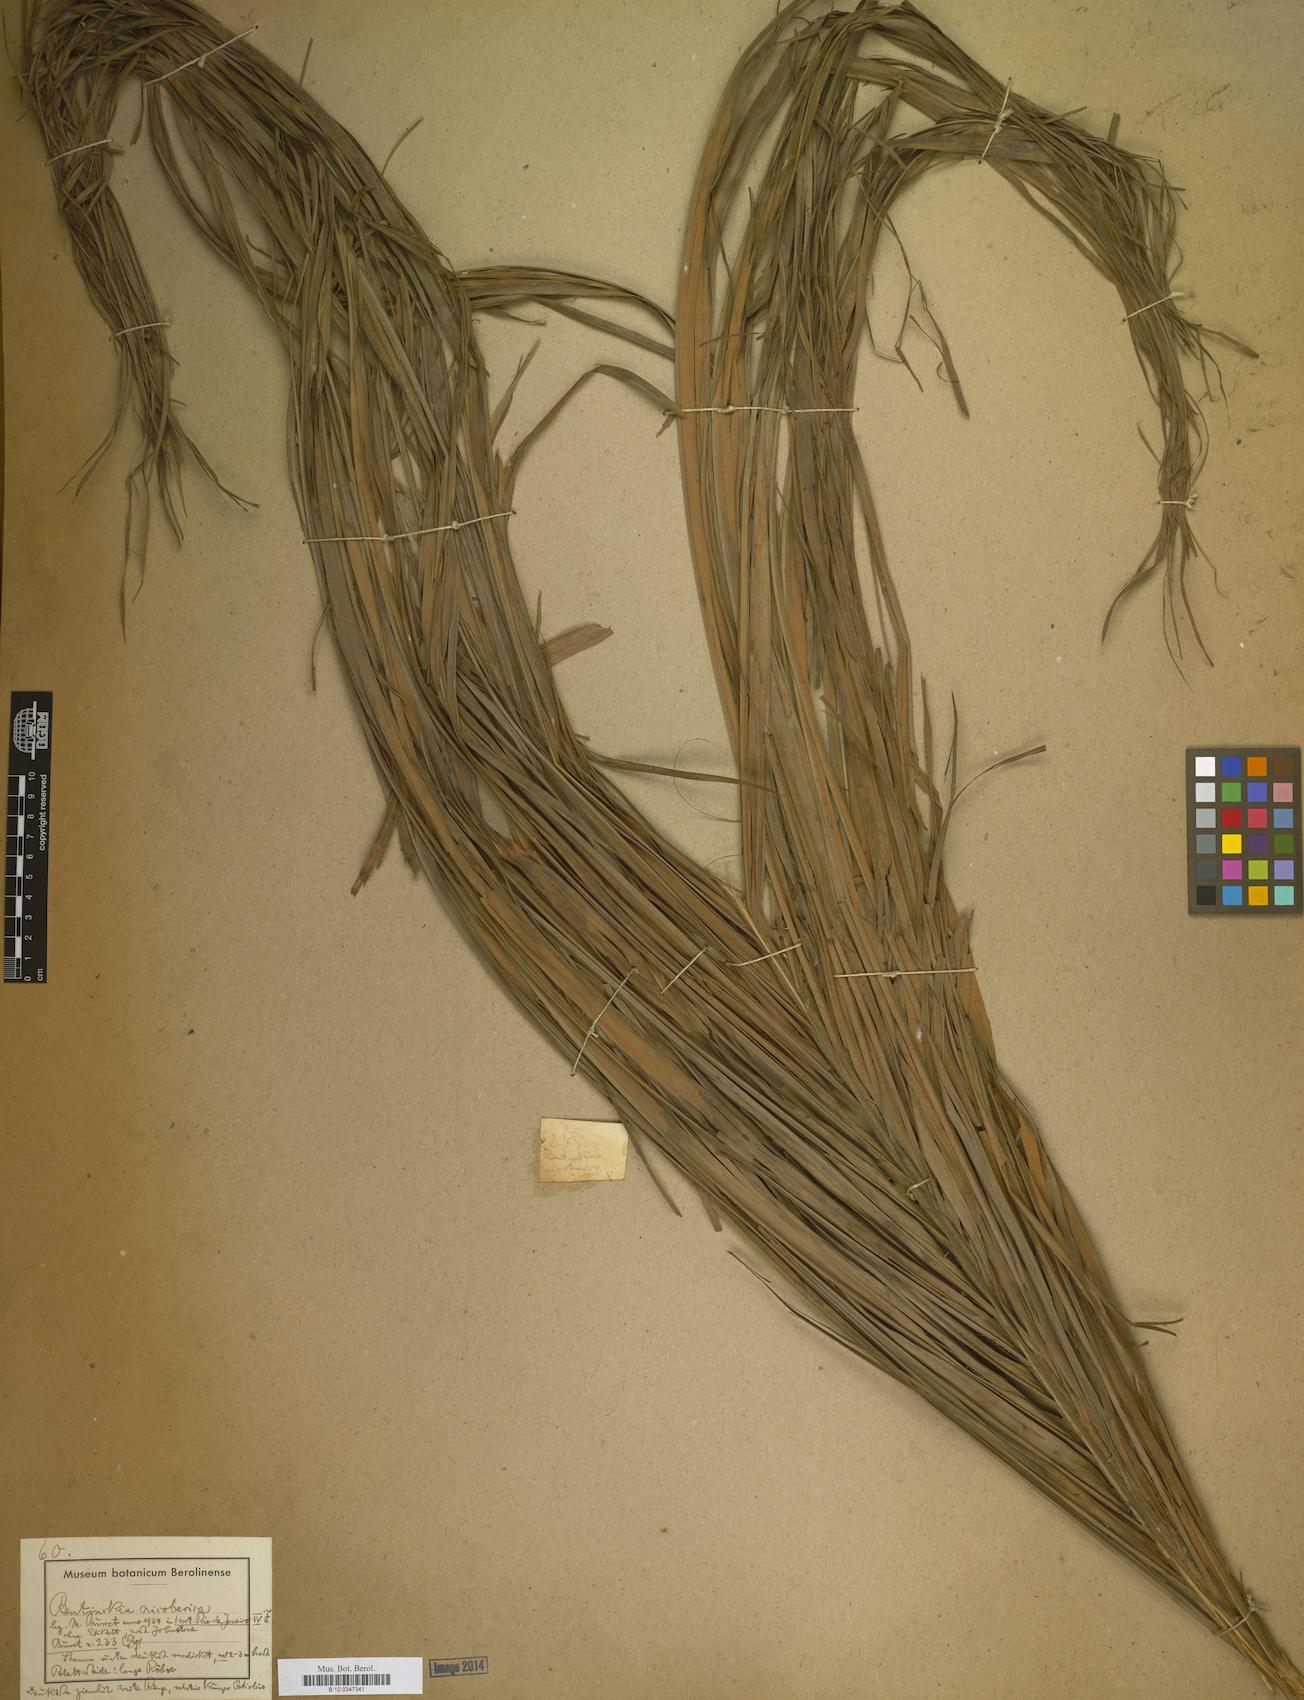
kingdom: Plantae
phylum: Tracheophyta
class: Liliopsida
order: Arecales
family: Arecaceae
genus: Bentinckia
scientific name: Bentinckia
